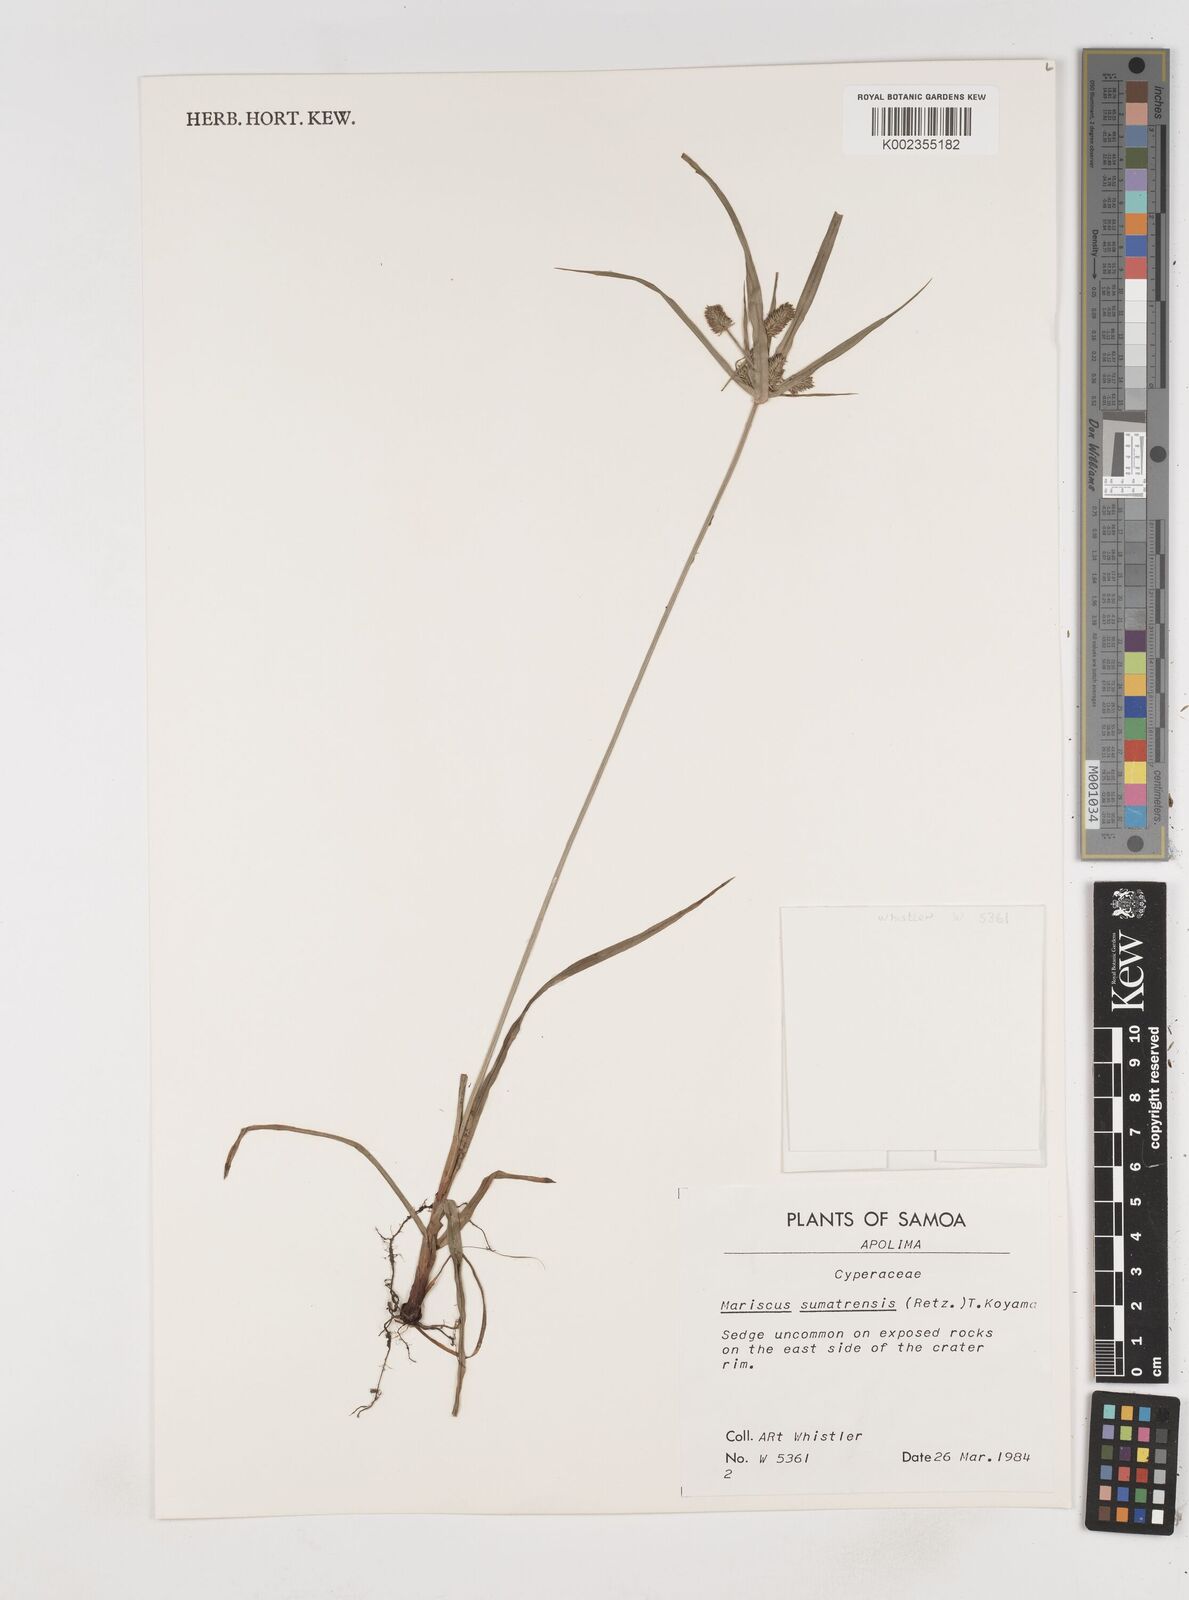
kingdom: Plantae
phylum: Tracheophyta
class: Liliopsida
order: Poales
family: Cyperaceae
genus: Cyperus
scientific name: Cyperus cyperoides
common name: Pacific island flat sedge
